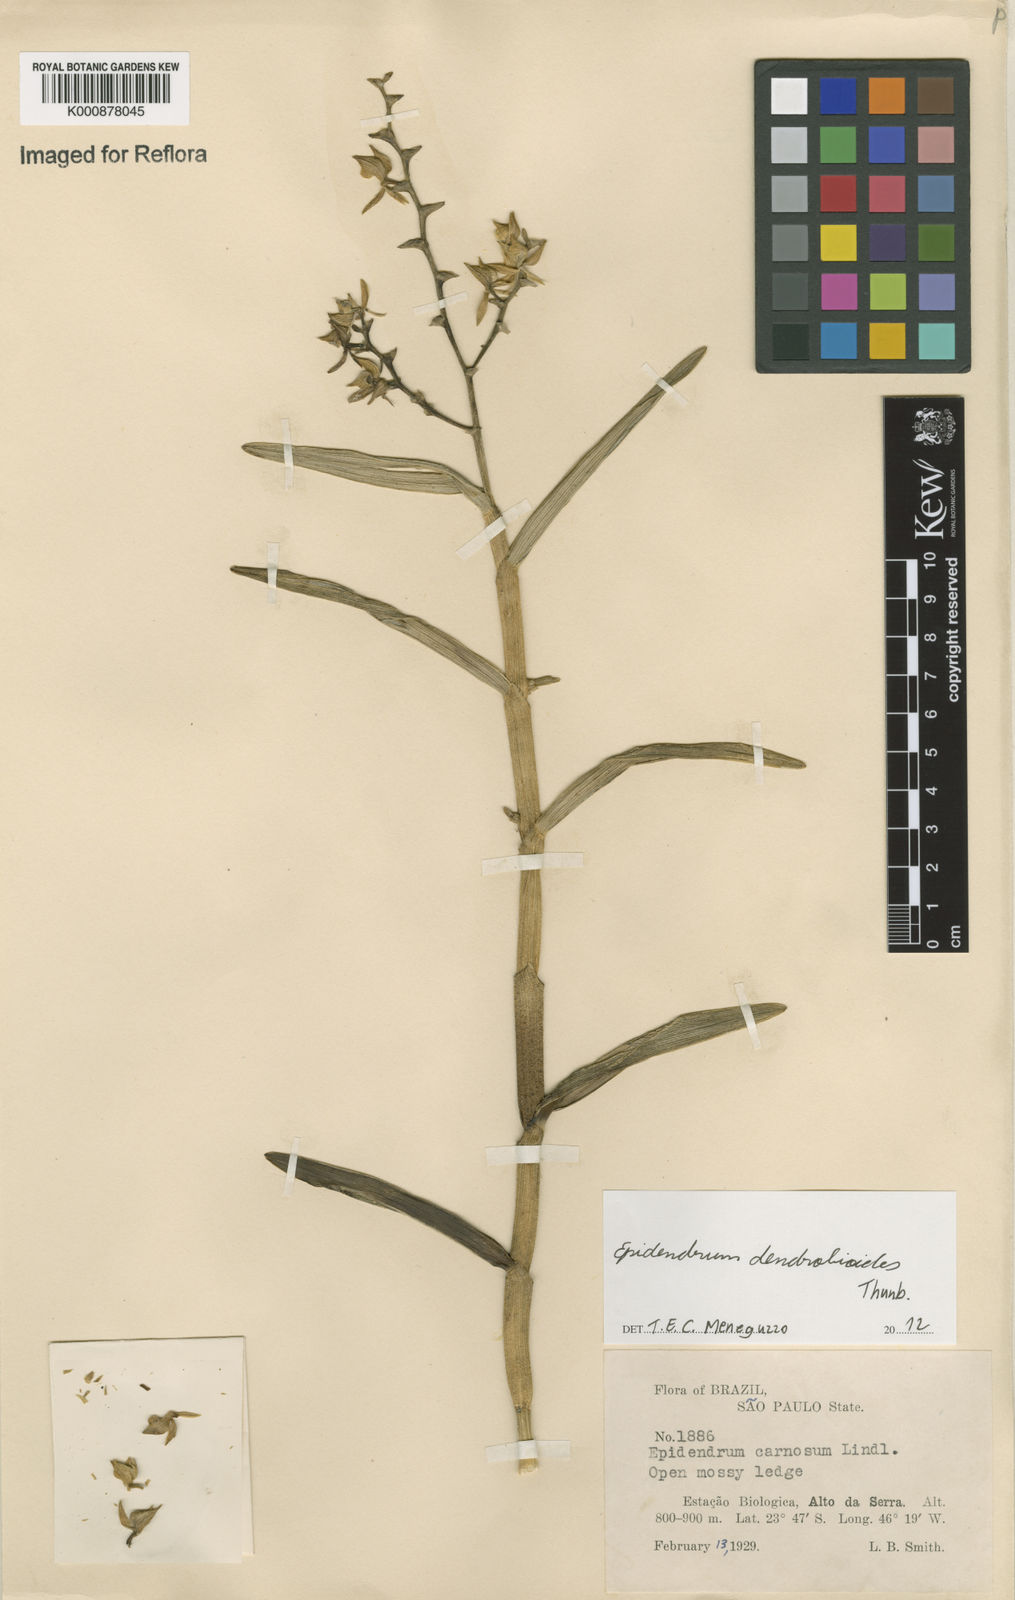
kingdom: Plantae
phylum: Tracheophyta
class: Liliopsida
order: Asparagales
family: Orchidaceae
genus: Epidendrum
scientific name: Epidendrum dendrobioides
